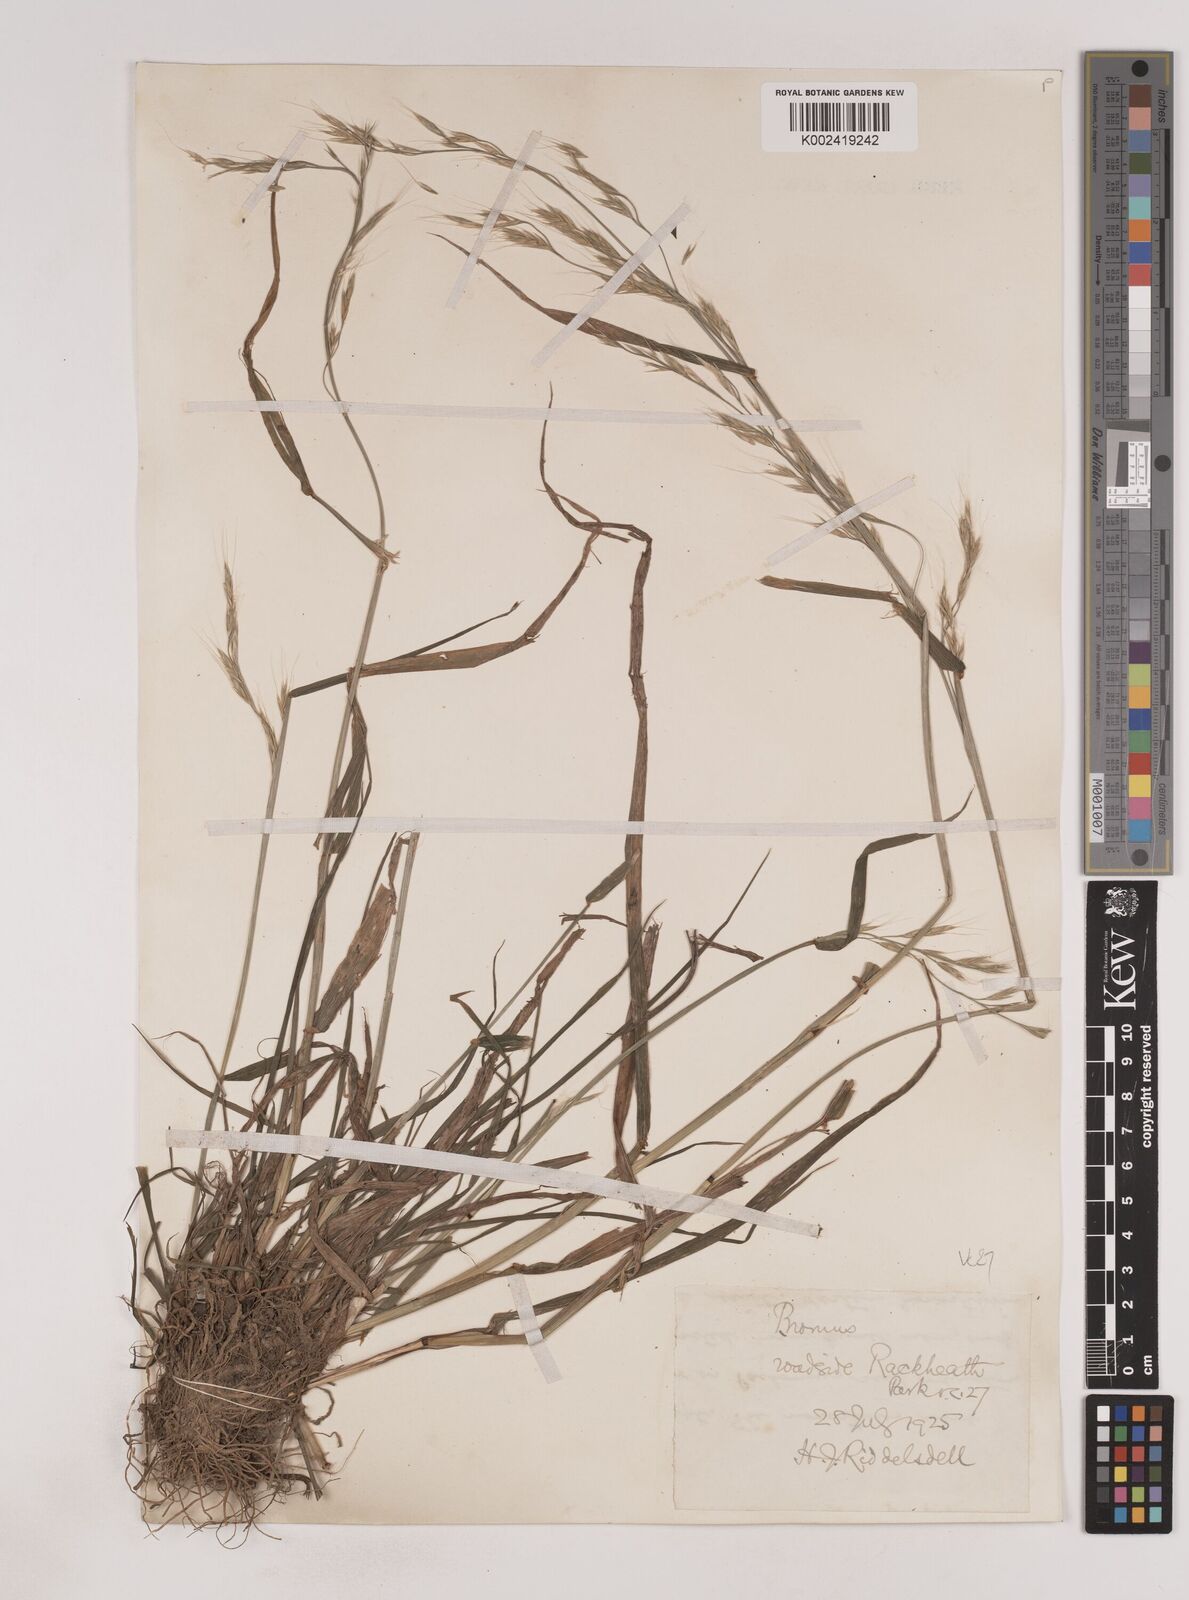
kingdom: Plantae
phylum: Tracheophyta
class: Liliopsida
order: Poales
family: Poaceae
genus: Lolium
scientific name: Lolium giganteum
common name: Giant fescue
